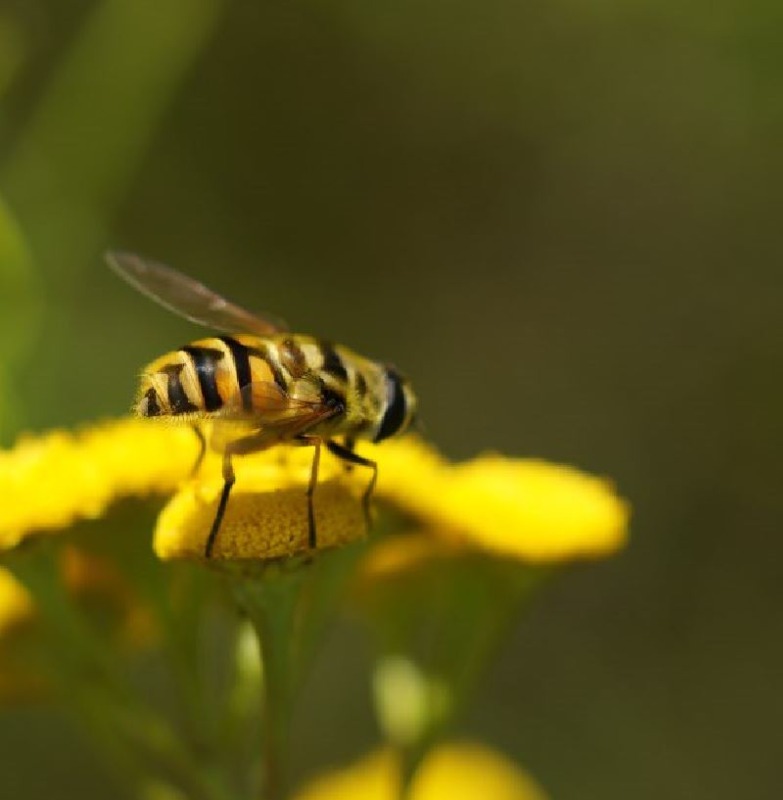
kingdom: Animalia
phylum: Arthropoda
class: Insecta
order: Diptera
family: Syrphidae
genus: Myathropa
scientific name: Myathropa florea
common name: Dødningehoved-svirreflue
